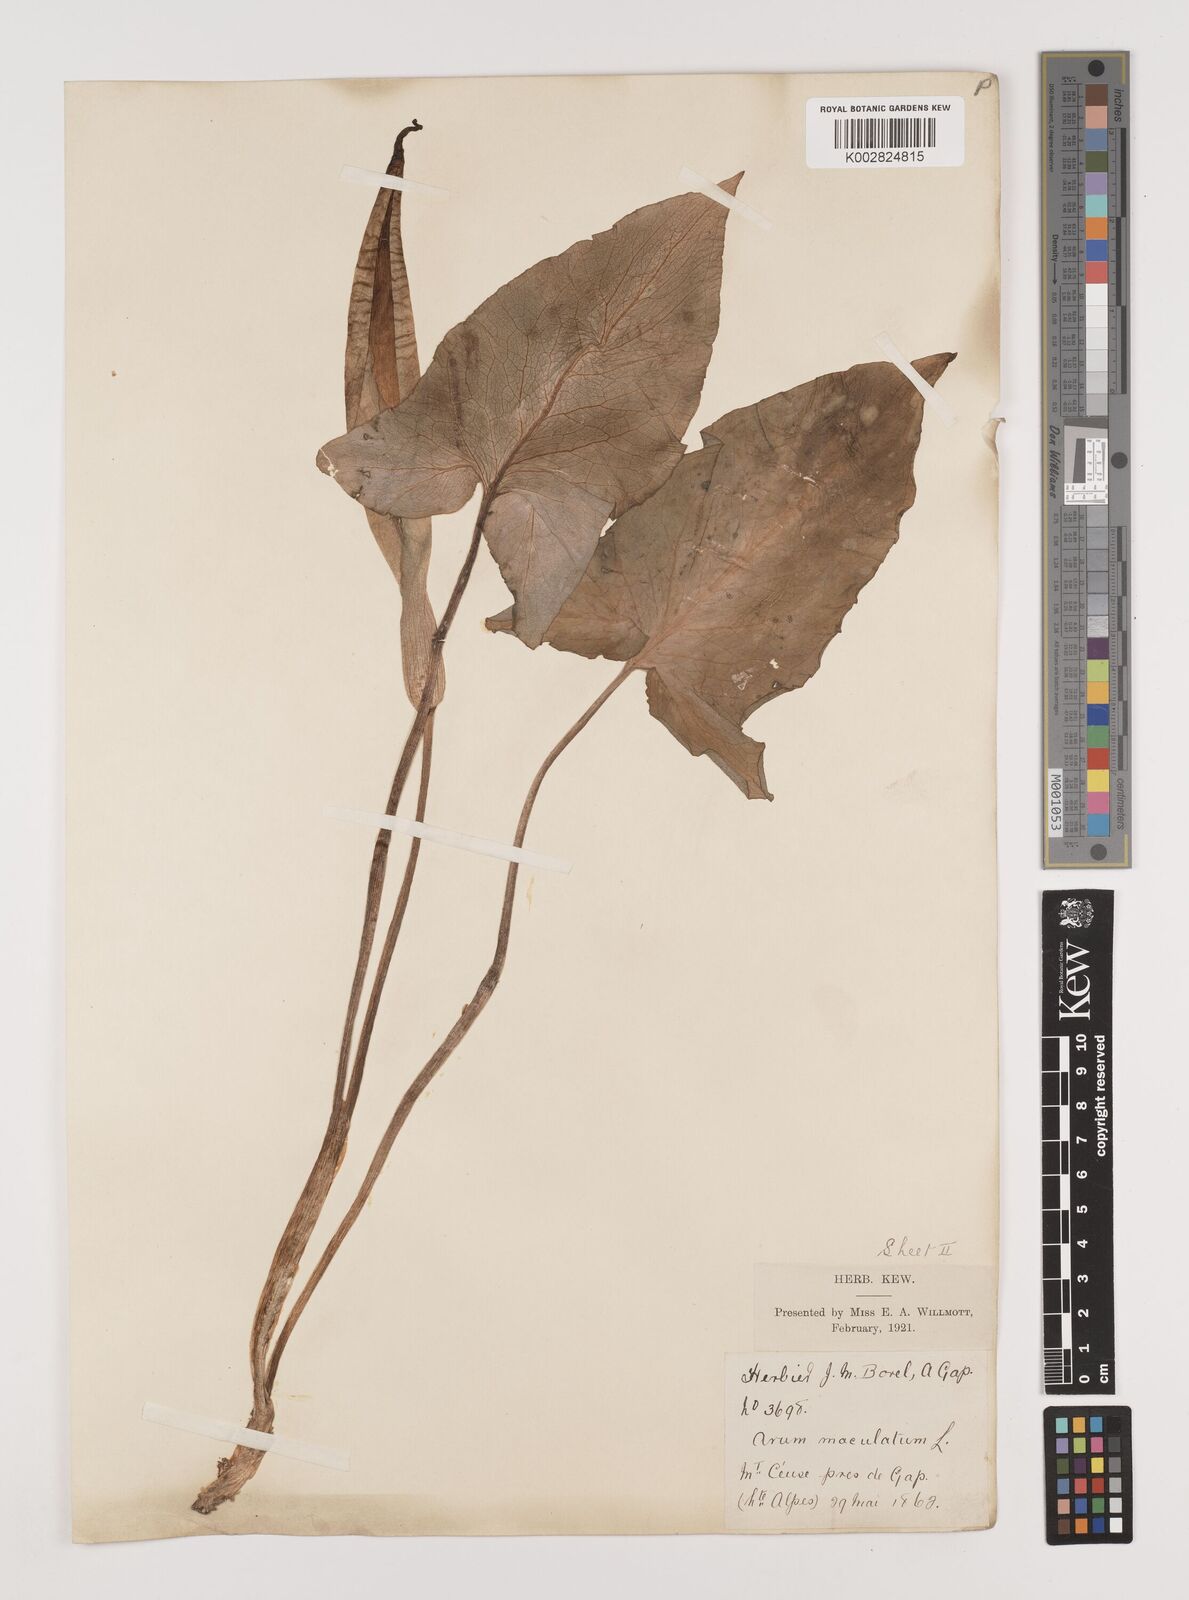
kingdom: Plantae
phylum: Tracheophyta
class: Liliopsida
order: Alismatales
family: Araceae
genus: Arum
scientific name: Arum maculatum
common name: Lords-and-ladies
